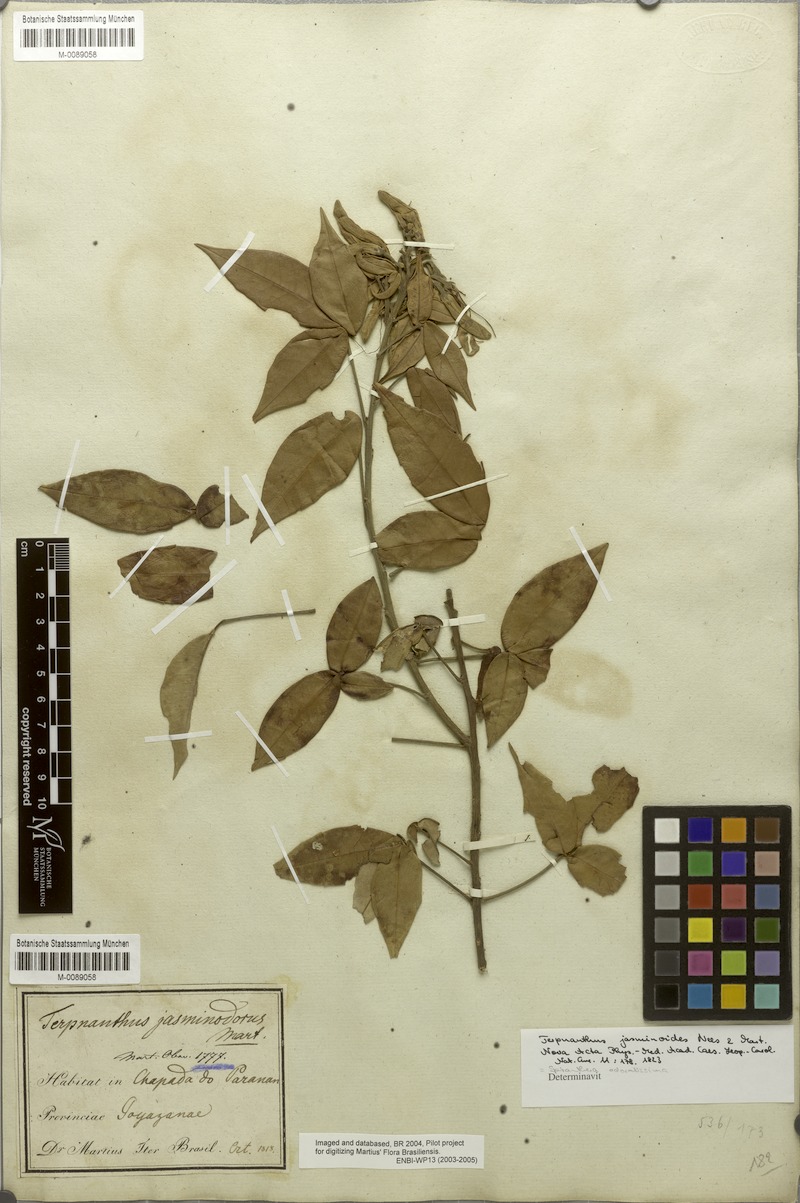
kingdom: Plantae
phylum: Tracheophyta
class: Magnoliopsida
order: Sapindales
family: Rutaceae
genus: Spiranthera
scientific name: Spiranthera odoratissima
